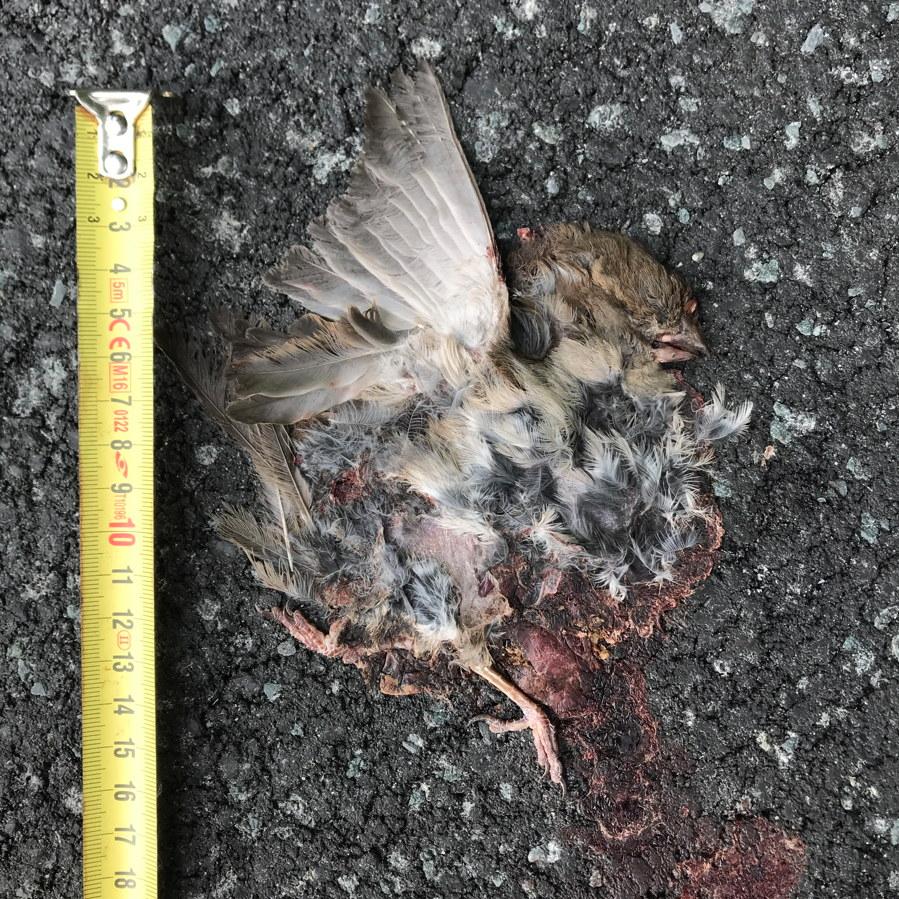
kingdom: Animalia
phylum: Chordata
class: Aves
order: Passeriformes
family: Passeridae
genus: Passer
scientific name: Passer domesticus
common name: House sparrow
